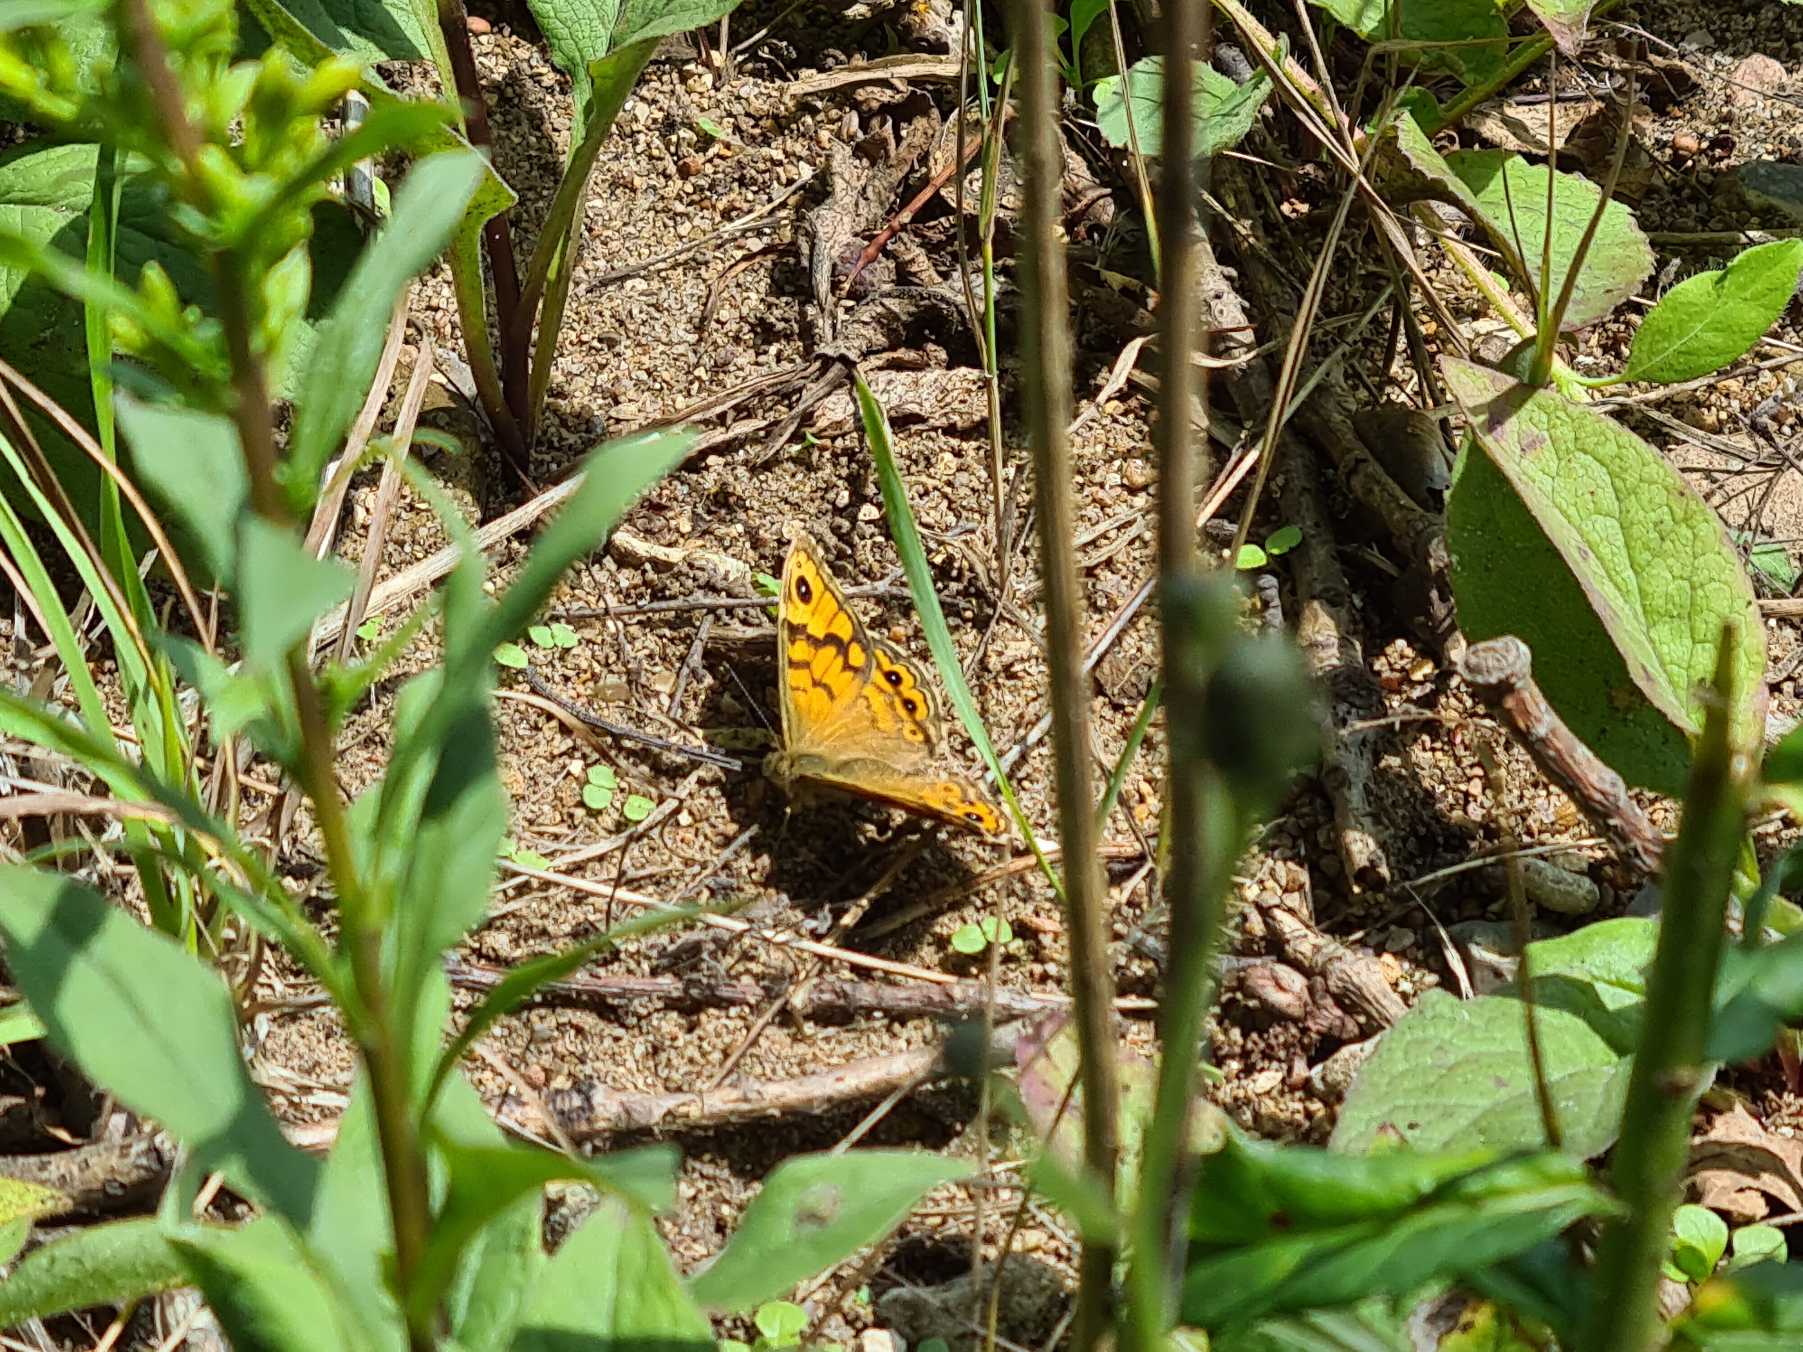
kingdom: Animalia
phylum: Arthropoda
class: Insecta
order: Lepidoptera
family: Nymphalidae
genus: Pararge
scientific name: Pararge Lasiommata megera
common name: Vejrandøje
